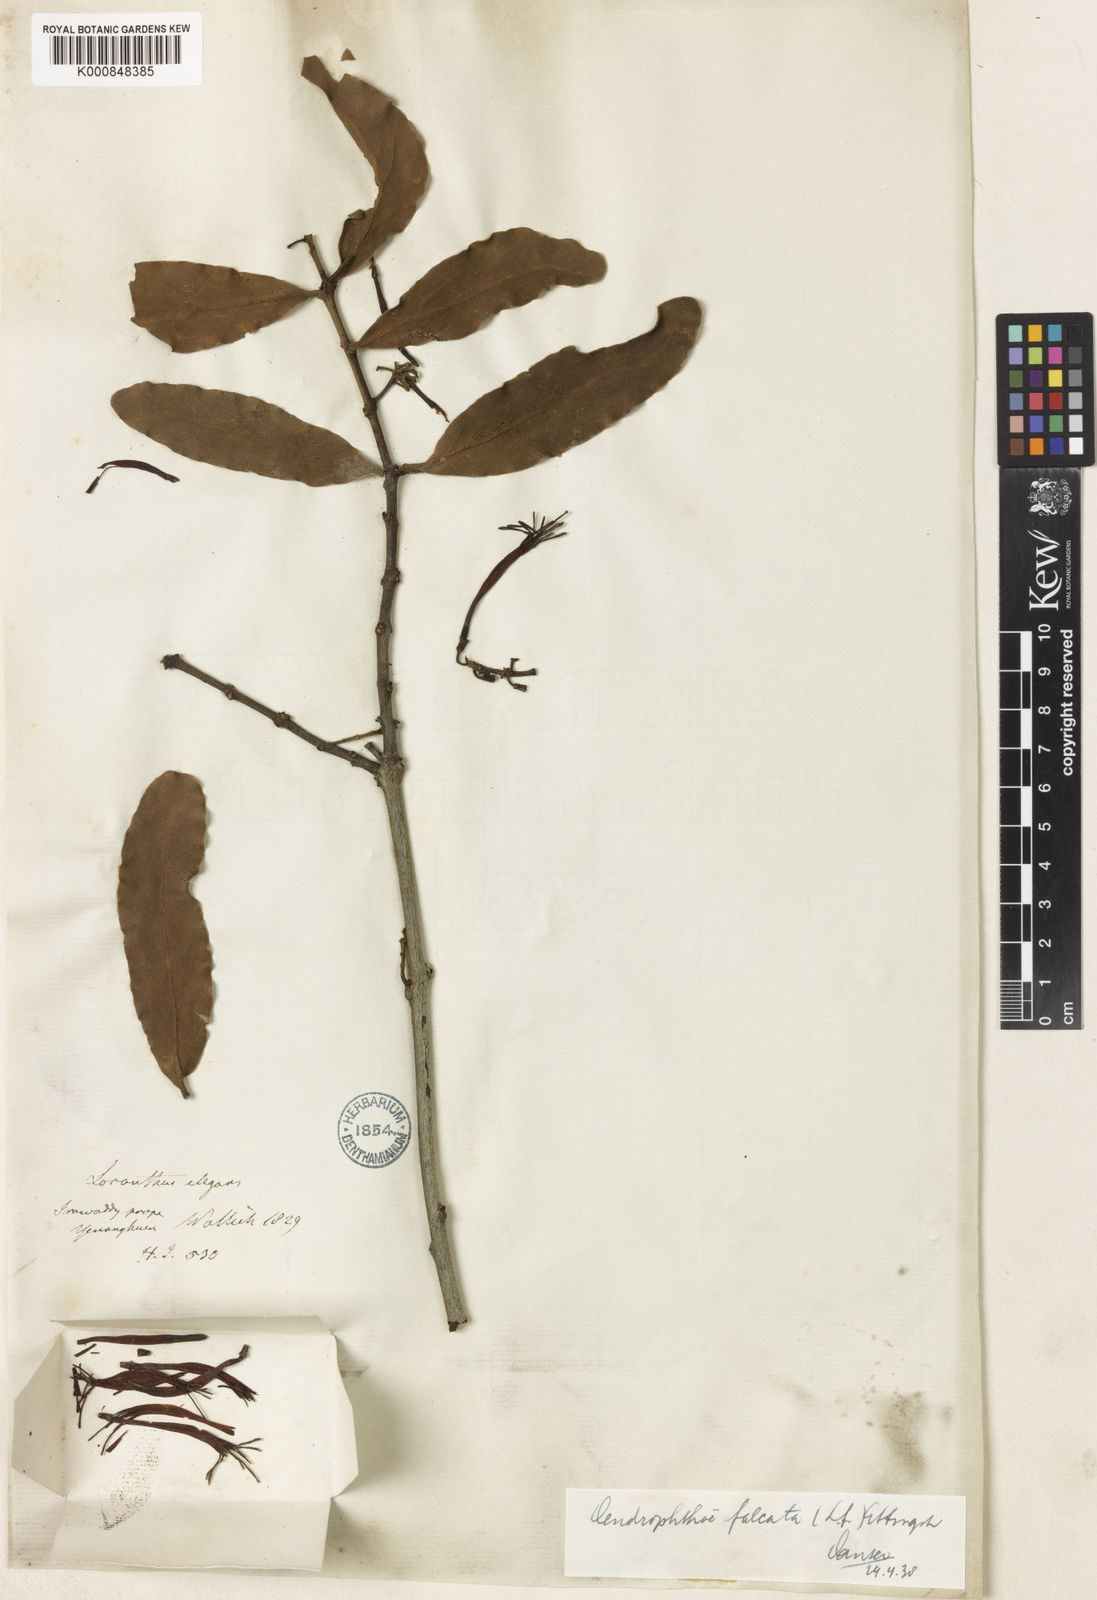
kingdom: Plantae
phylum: Tracheophyta
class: Magnoliopsida
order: Santalales
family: Loranthaceae
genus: Dendrophthoe
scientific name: Dendrophthoe
